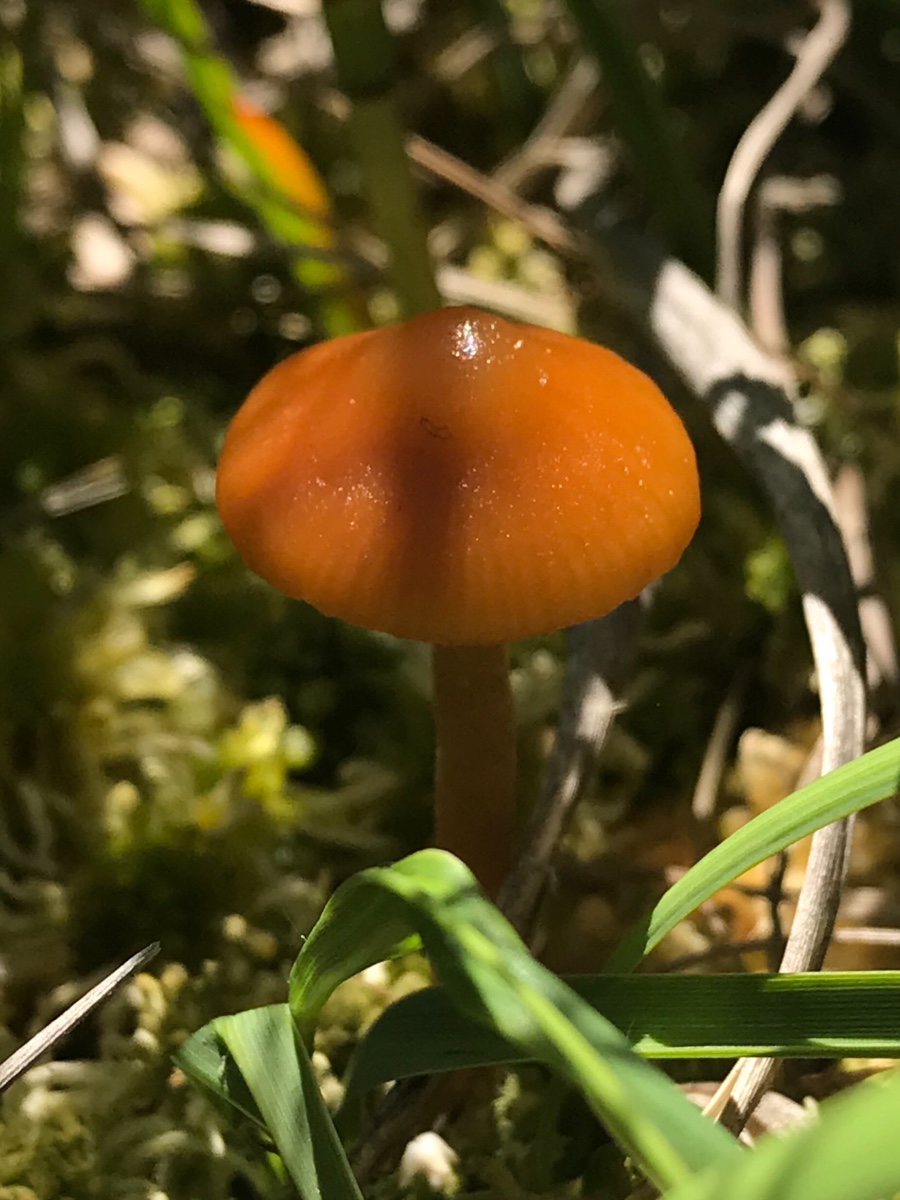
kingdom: Fungi
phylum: Basidiomycota
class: Agaricomycetes
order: Agaricales
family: Hymenogastraceae
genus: Galerina
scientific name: Galerina hybrida
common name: hængesæk-hjelmhat
